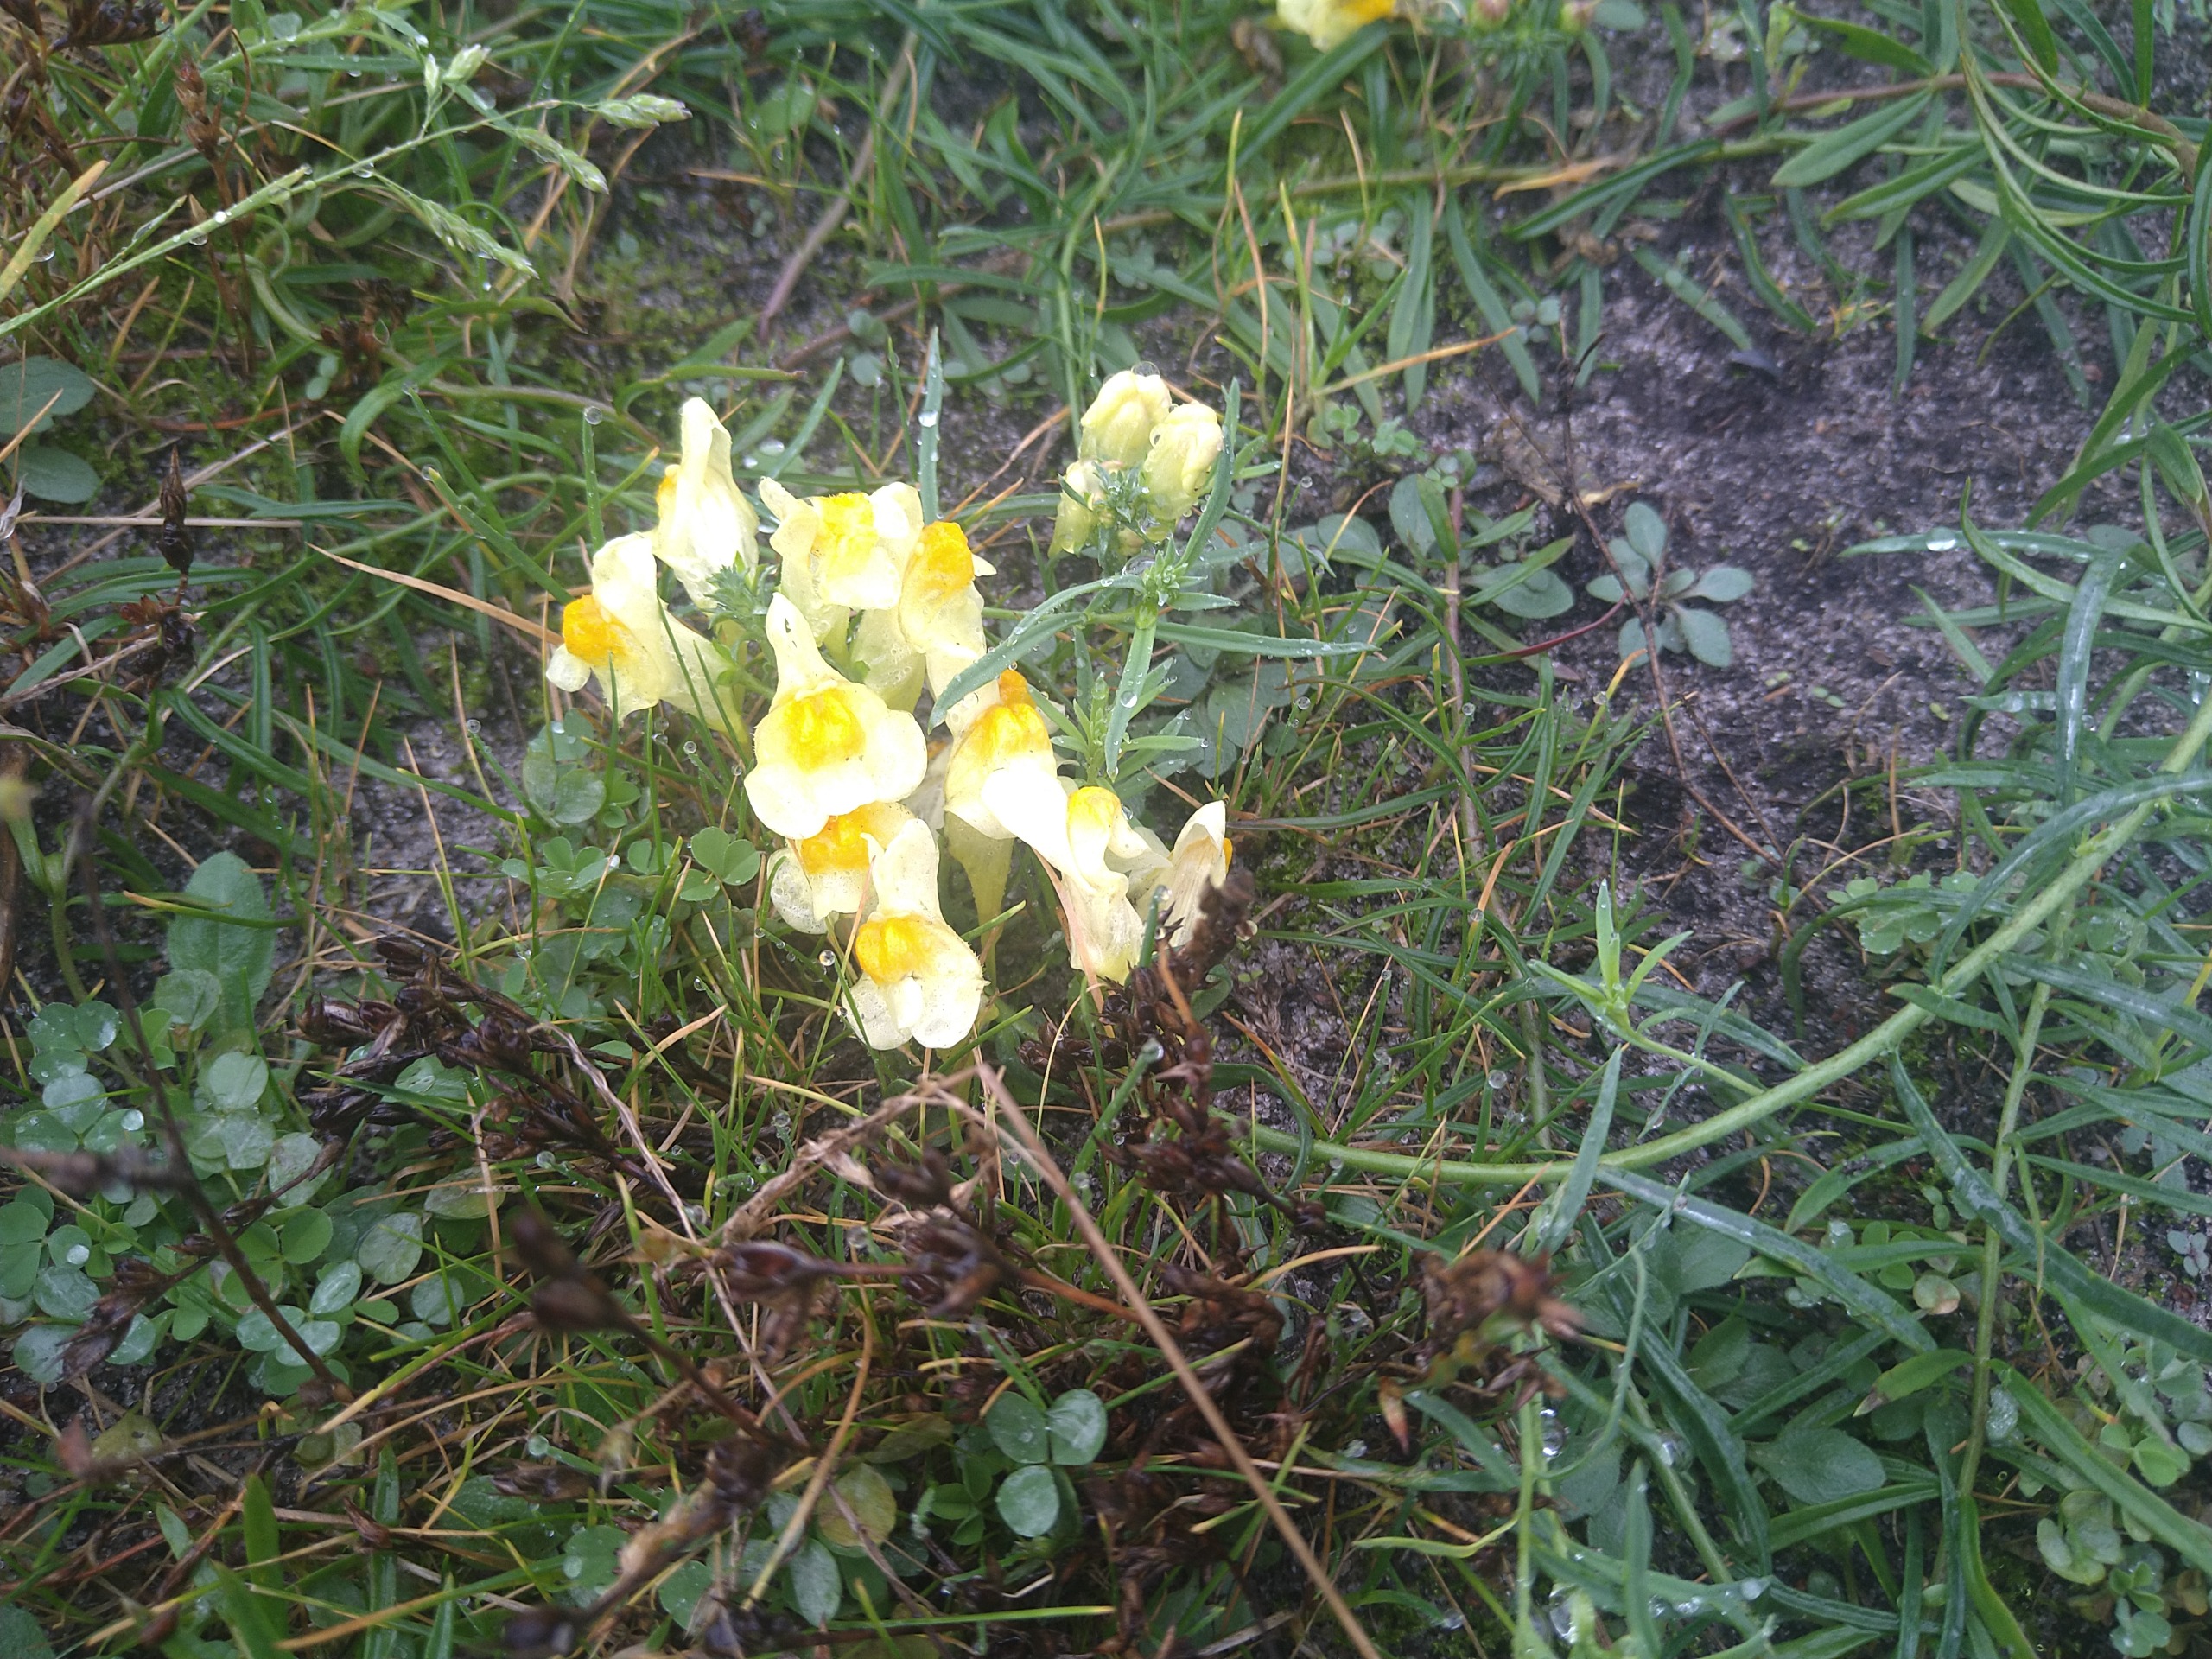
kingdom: Plantae
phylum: Tracheophyta
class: Magnoliopsida
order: Lamiales
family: Plantaginaceae
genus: Linaria
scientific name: Linaria vulgaris
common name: Almindelig torskemund
